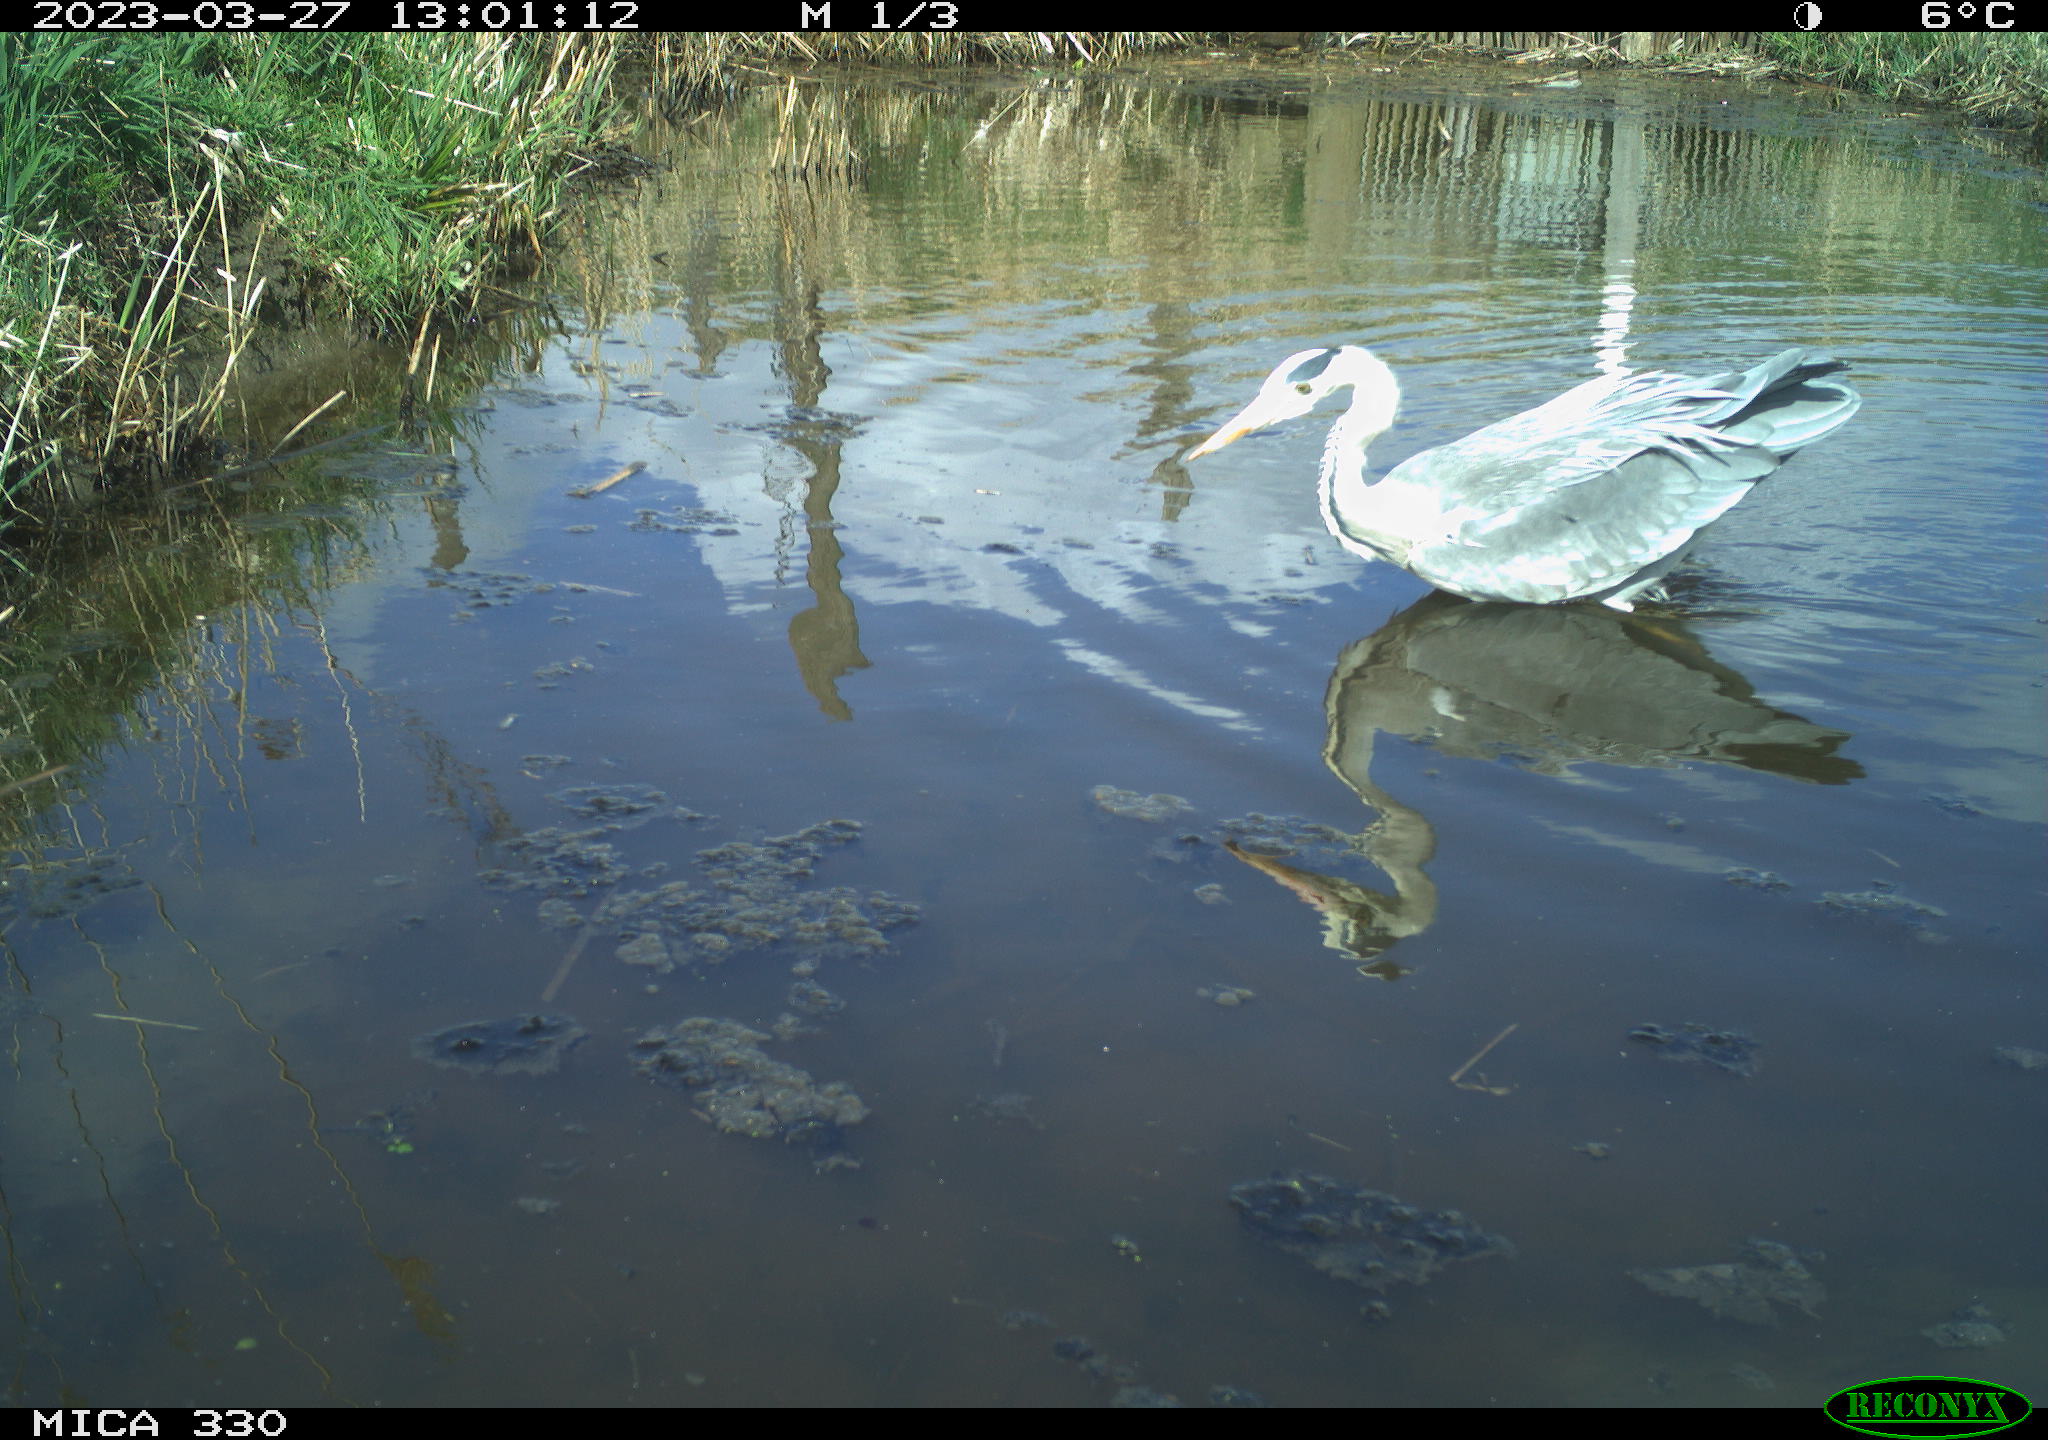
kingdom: Animalia
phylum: Chordata
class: Aves
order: Pelecaniformes
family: Ardeidae
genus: Ardea
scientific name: Ardea
